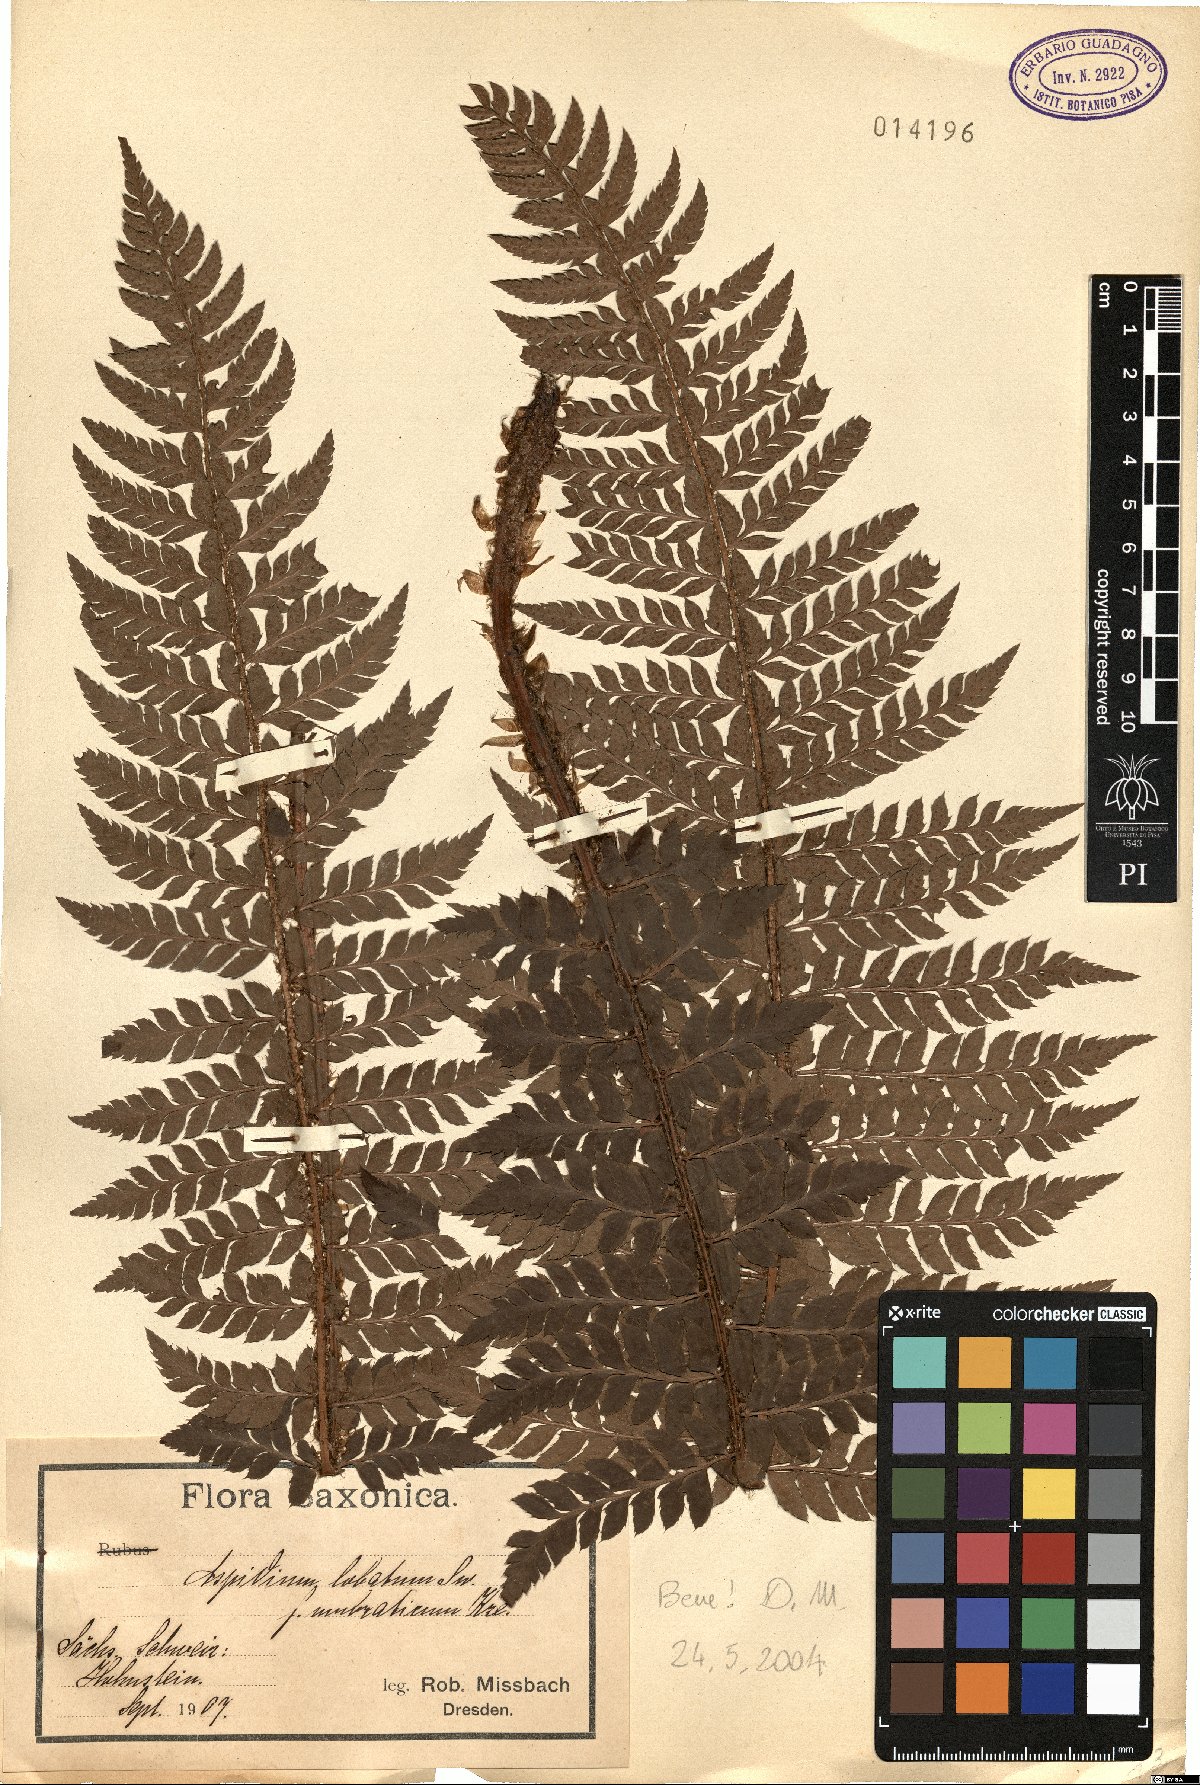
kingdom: Plantae
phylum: Tracheophyta
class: Polypodiopsida
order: Polypodiales
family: Dryopteridaceae
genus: Polystichum
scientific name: Polystichum aculeatum
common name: Hard shield-fern
